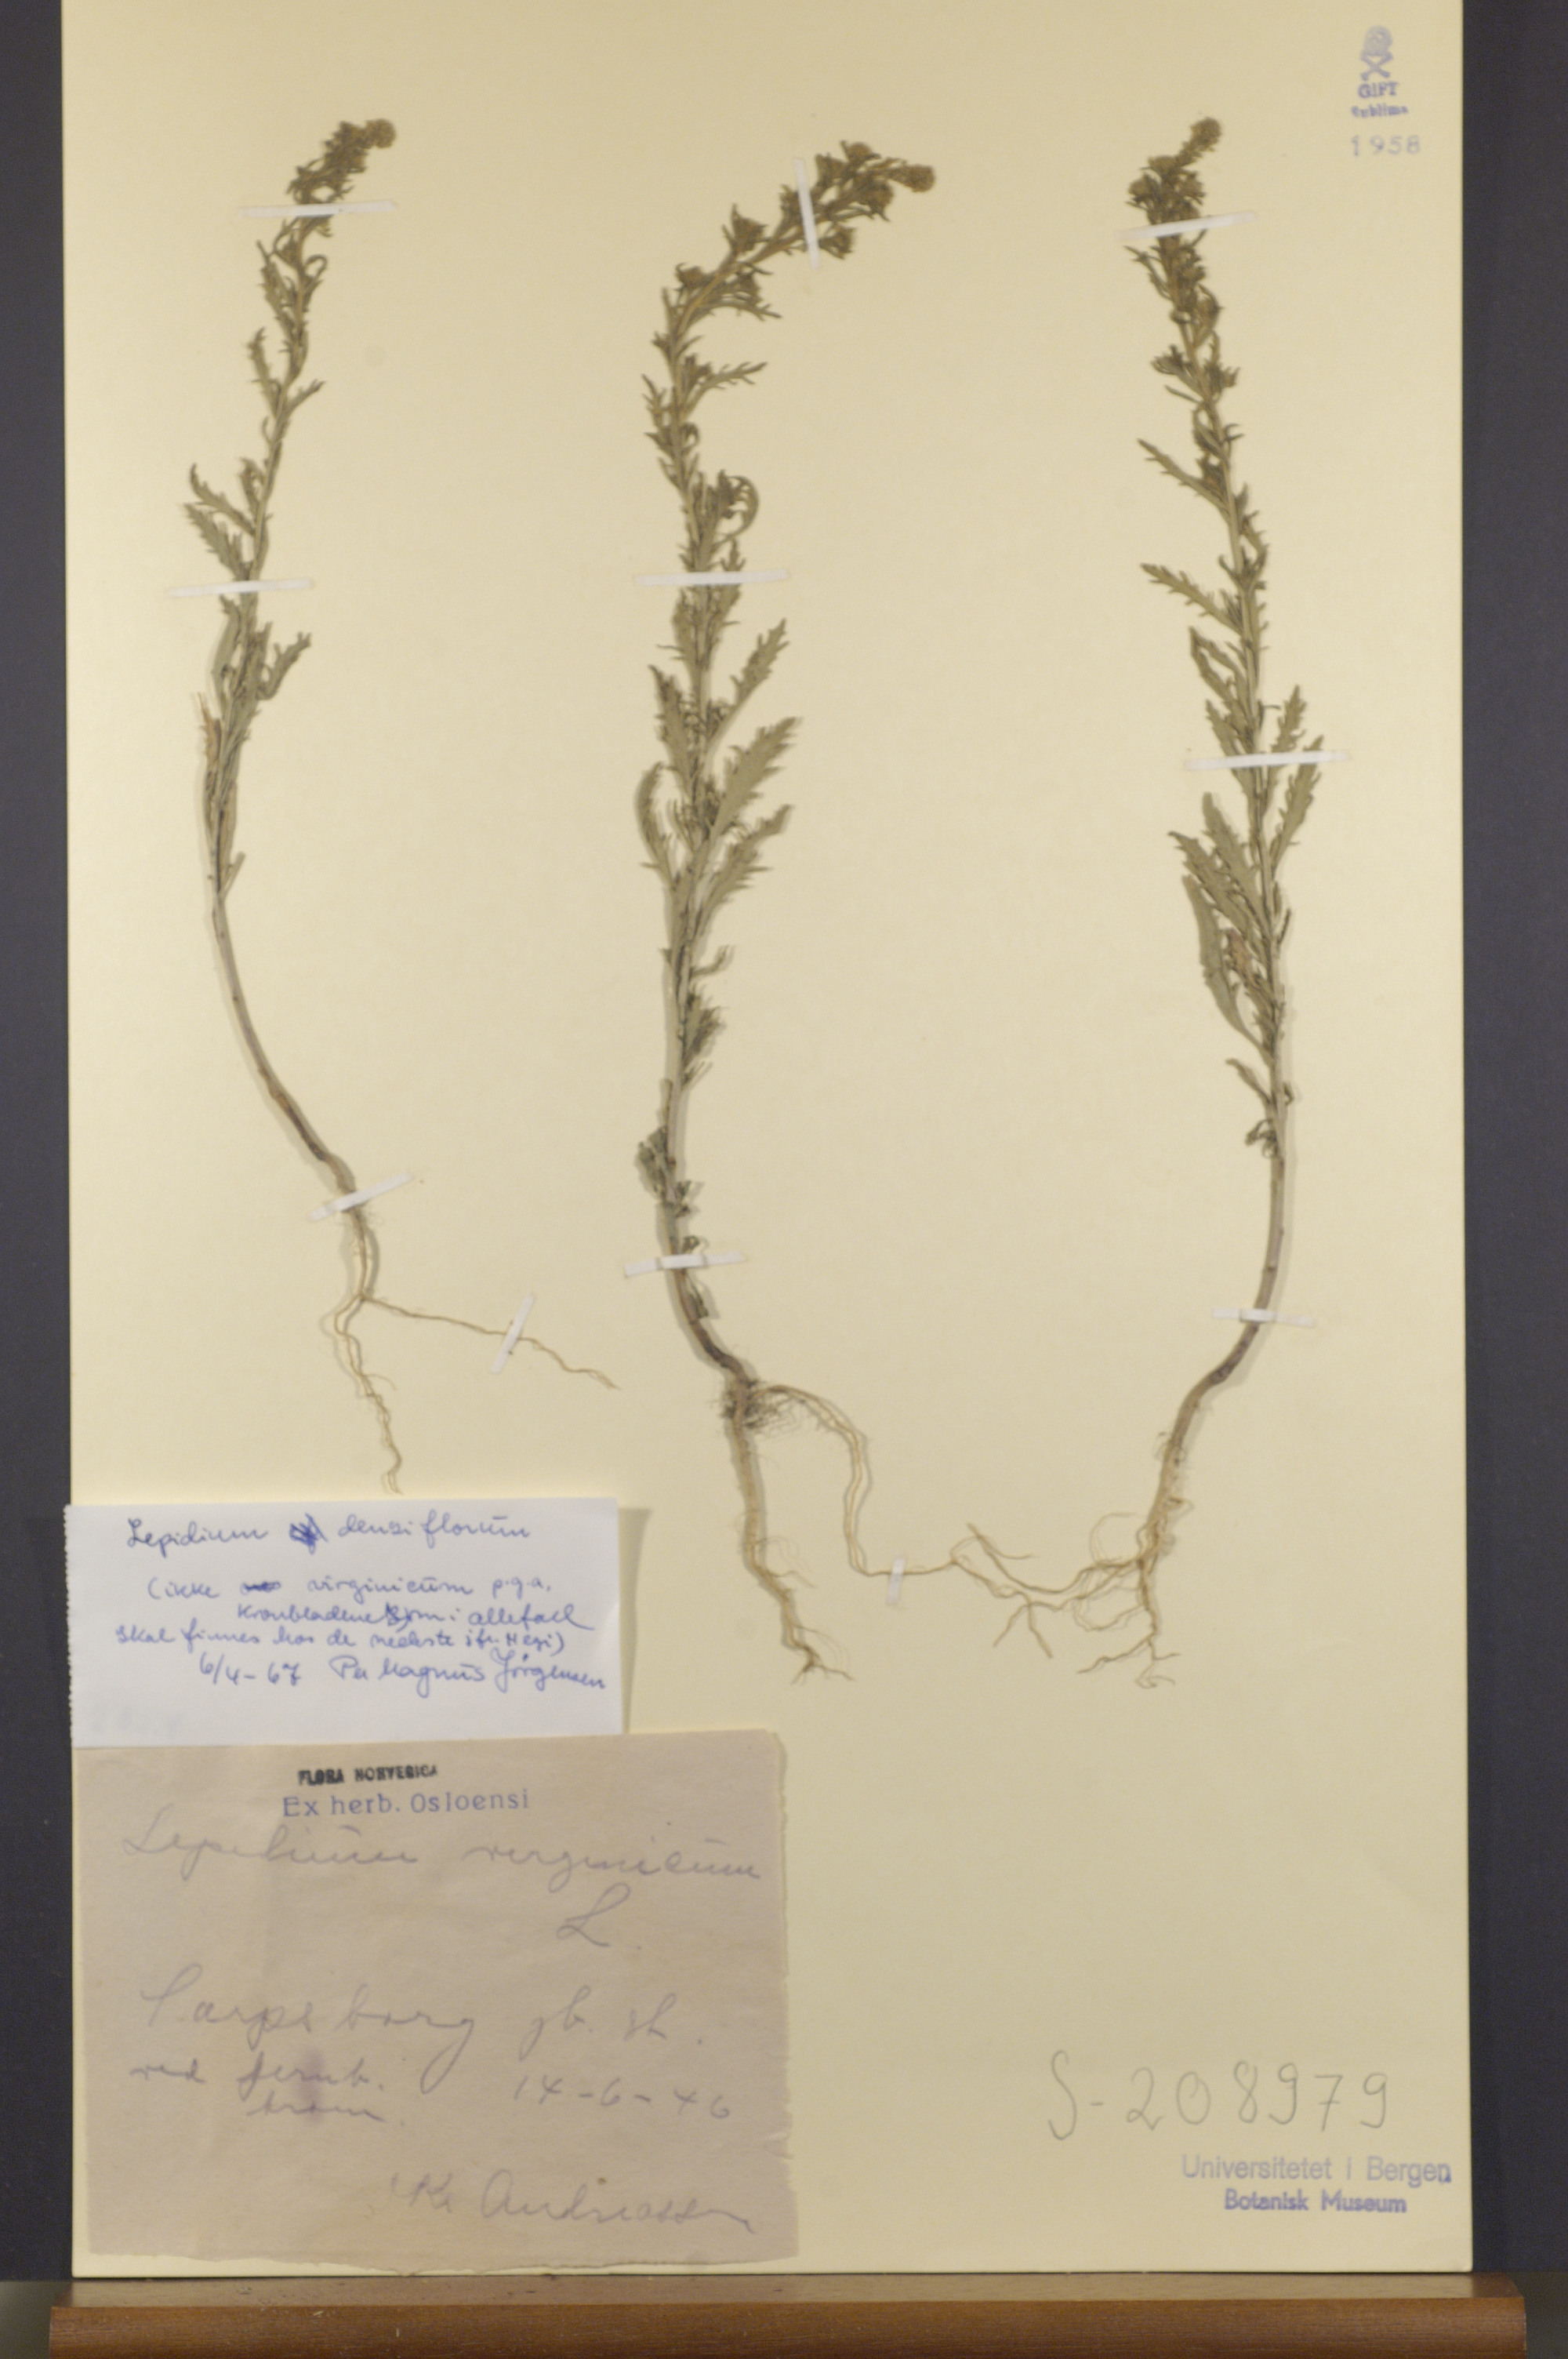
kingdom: Plantae
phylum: Tracheophyta
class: Magnoliopsida
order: Brassicales
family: Brassicaceae
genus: Lepidium
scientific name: Lepidium densiflorum
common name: Miner's pepperwort
